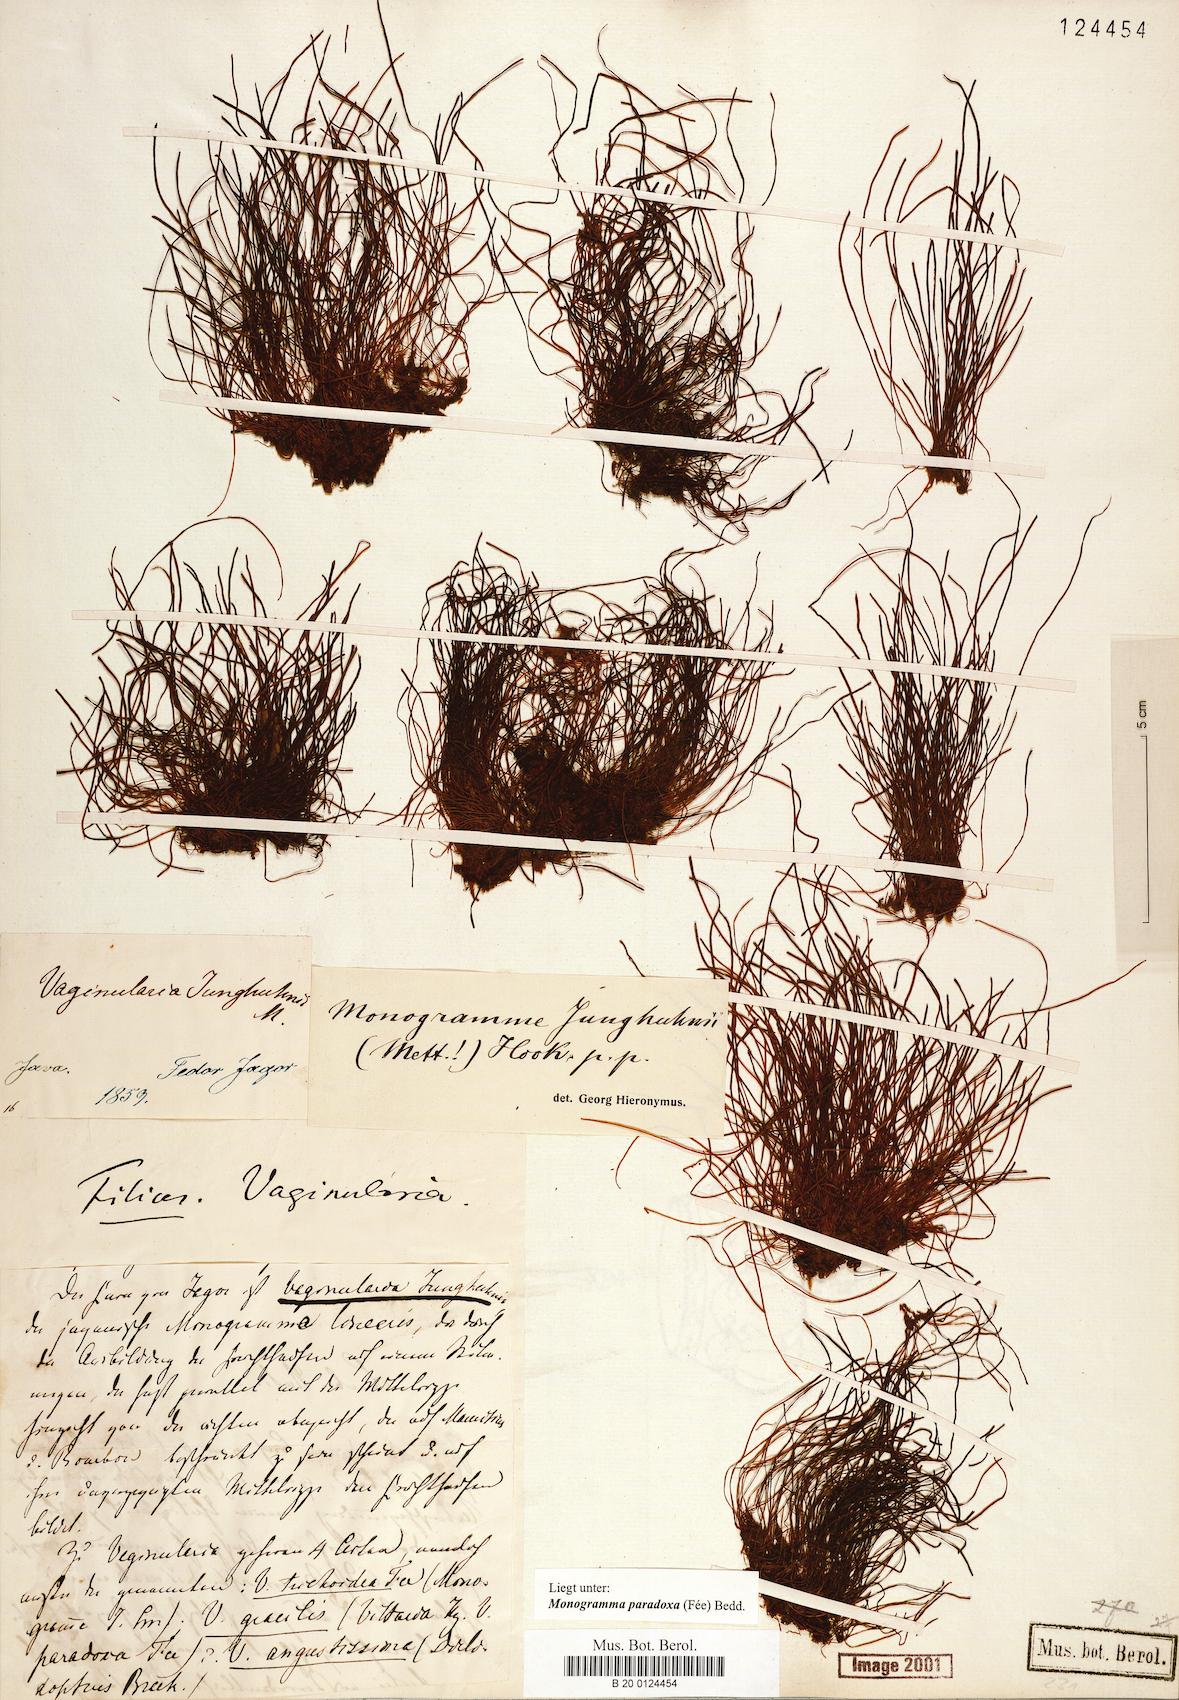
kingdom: Plantae
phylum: Tracheophyta
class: Polypodiopsida
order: Polypodiales
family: Pteridaceae
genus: Vaginularia
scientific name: Vaginularia paradoxa
